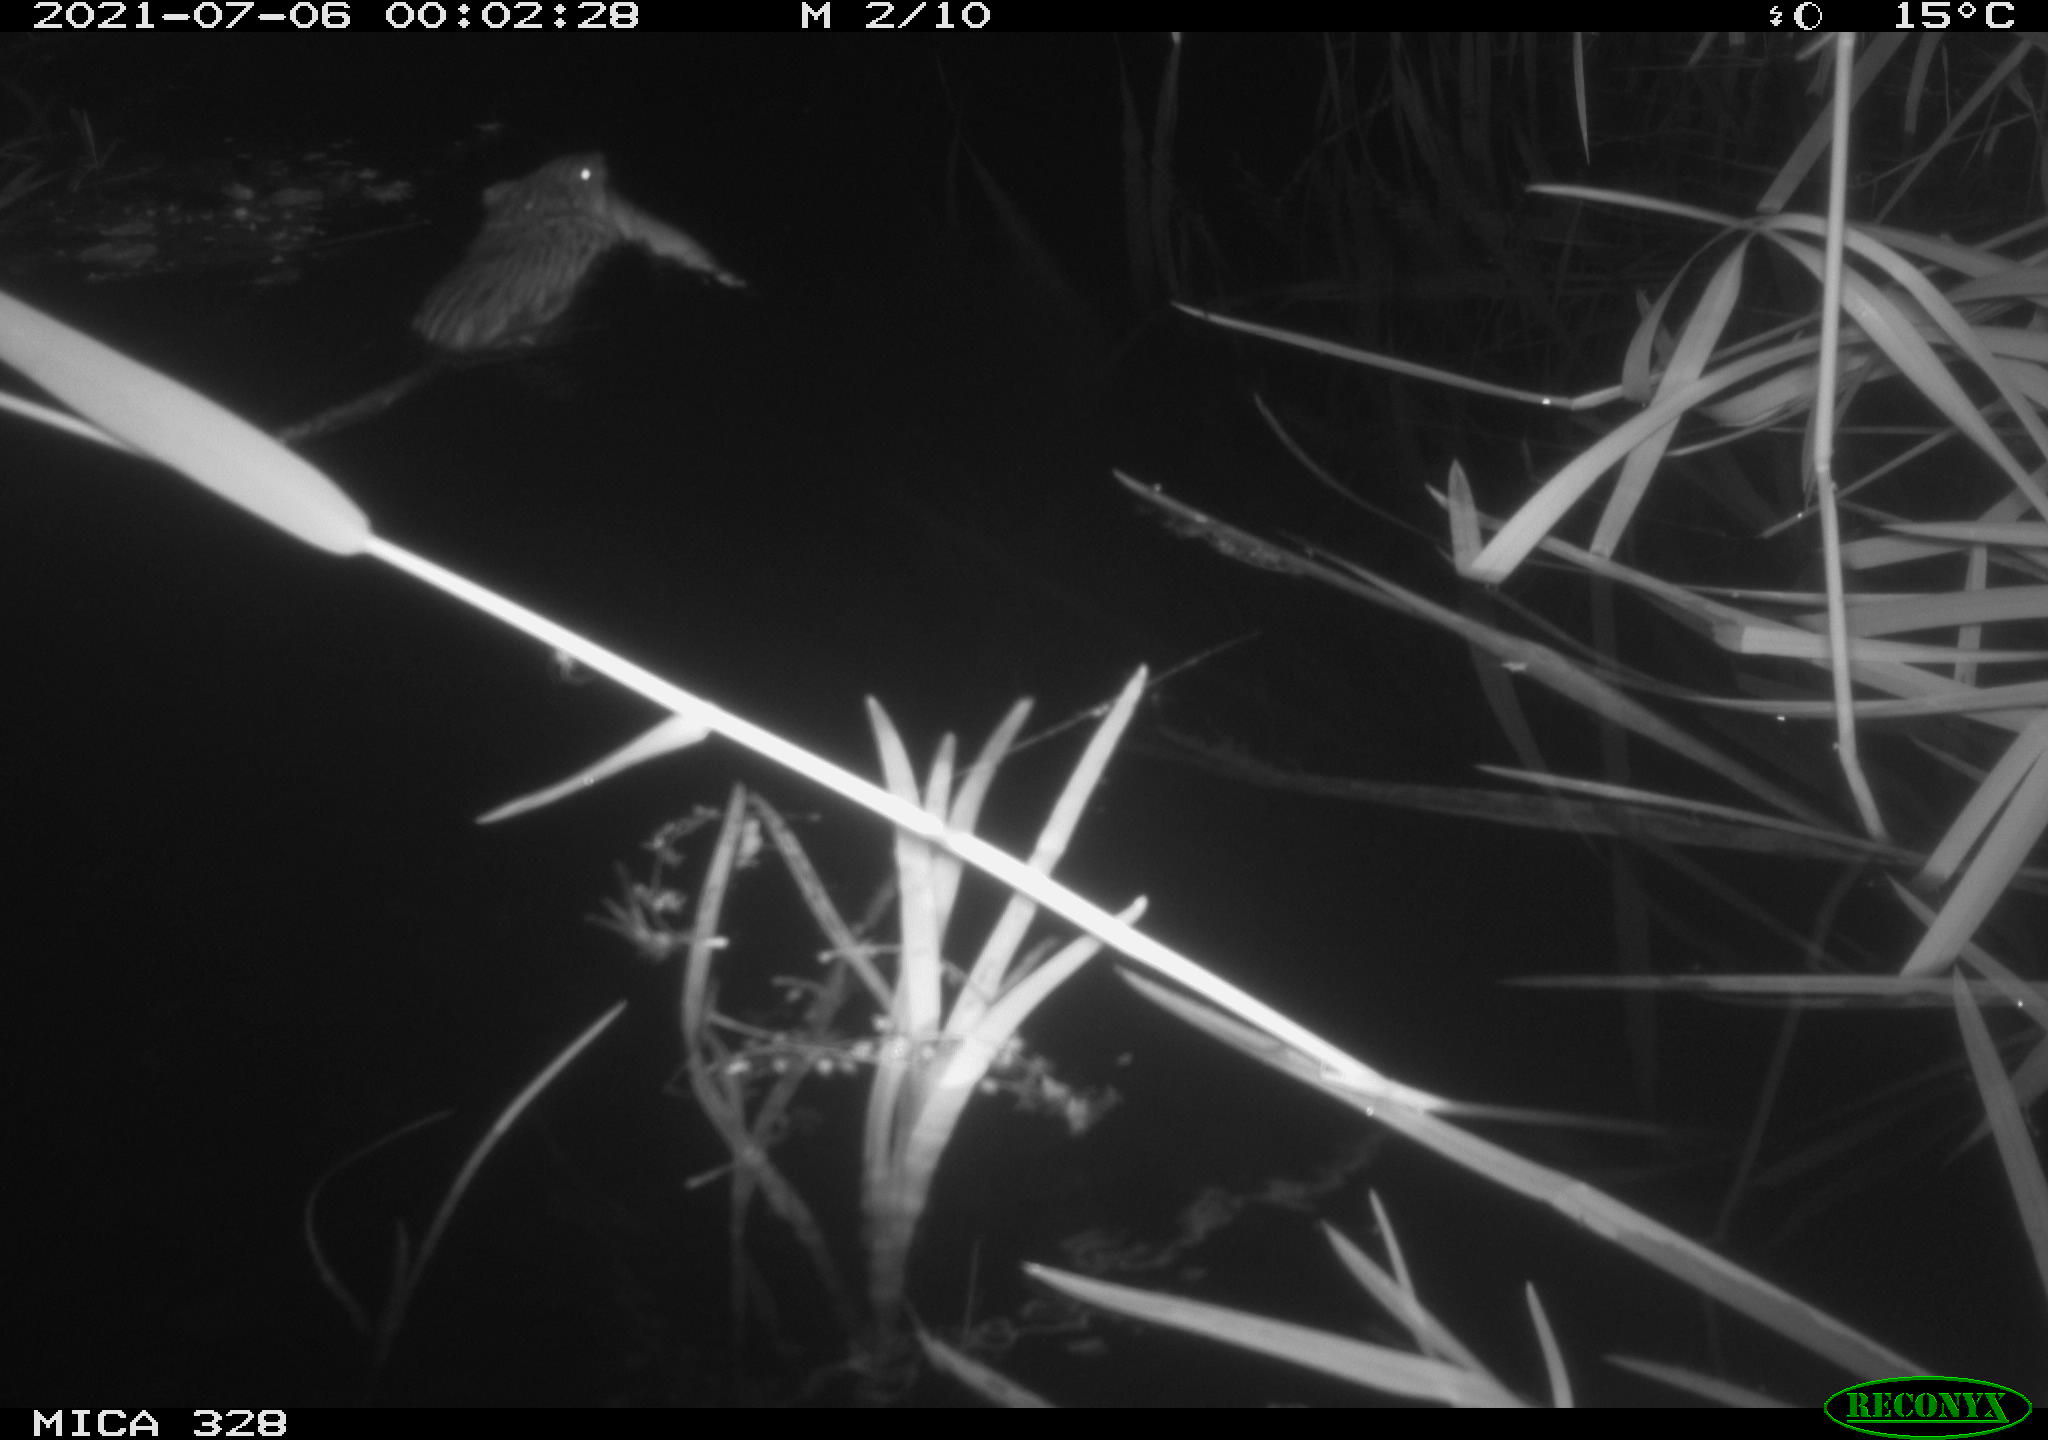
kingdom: Animalia
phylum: Chordata
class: Mammalia
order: Rodentia
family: Cricetidae
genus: Ondatra
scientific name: Ondatra zibethicus
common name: Muskrat
